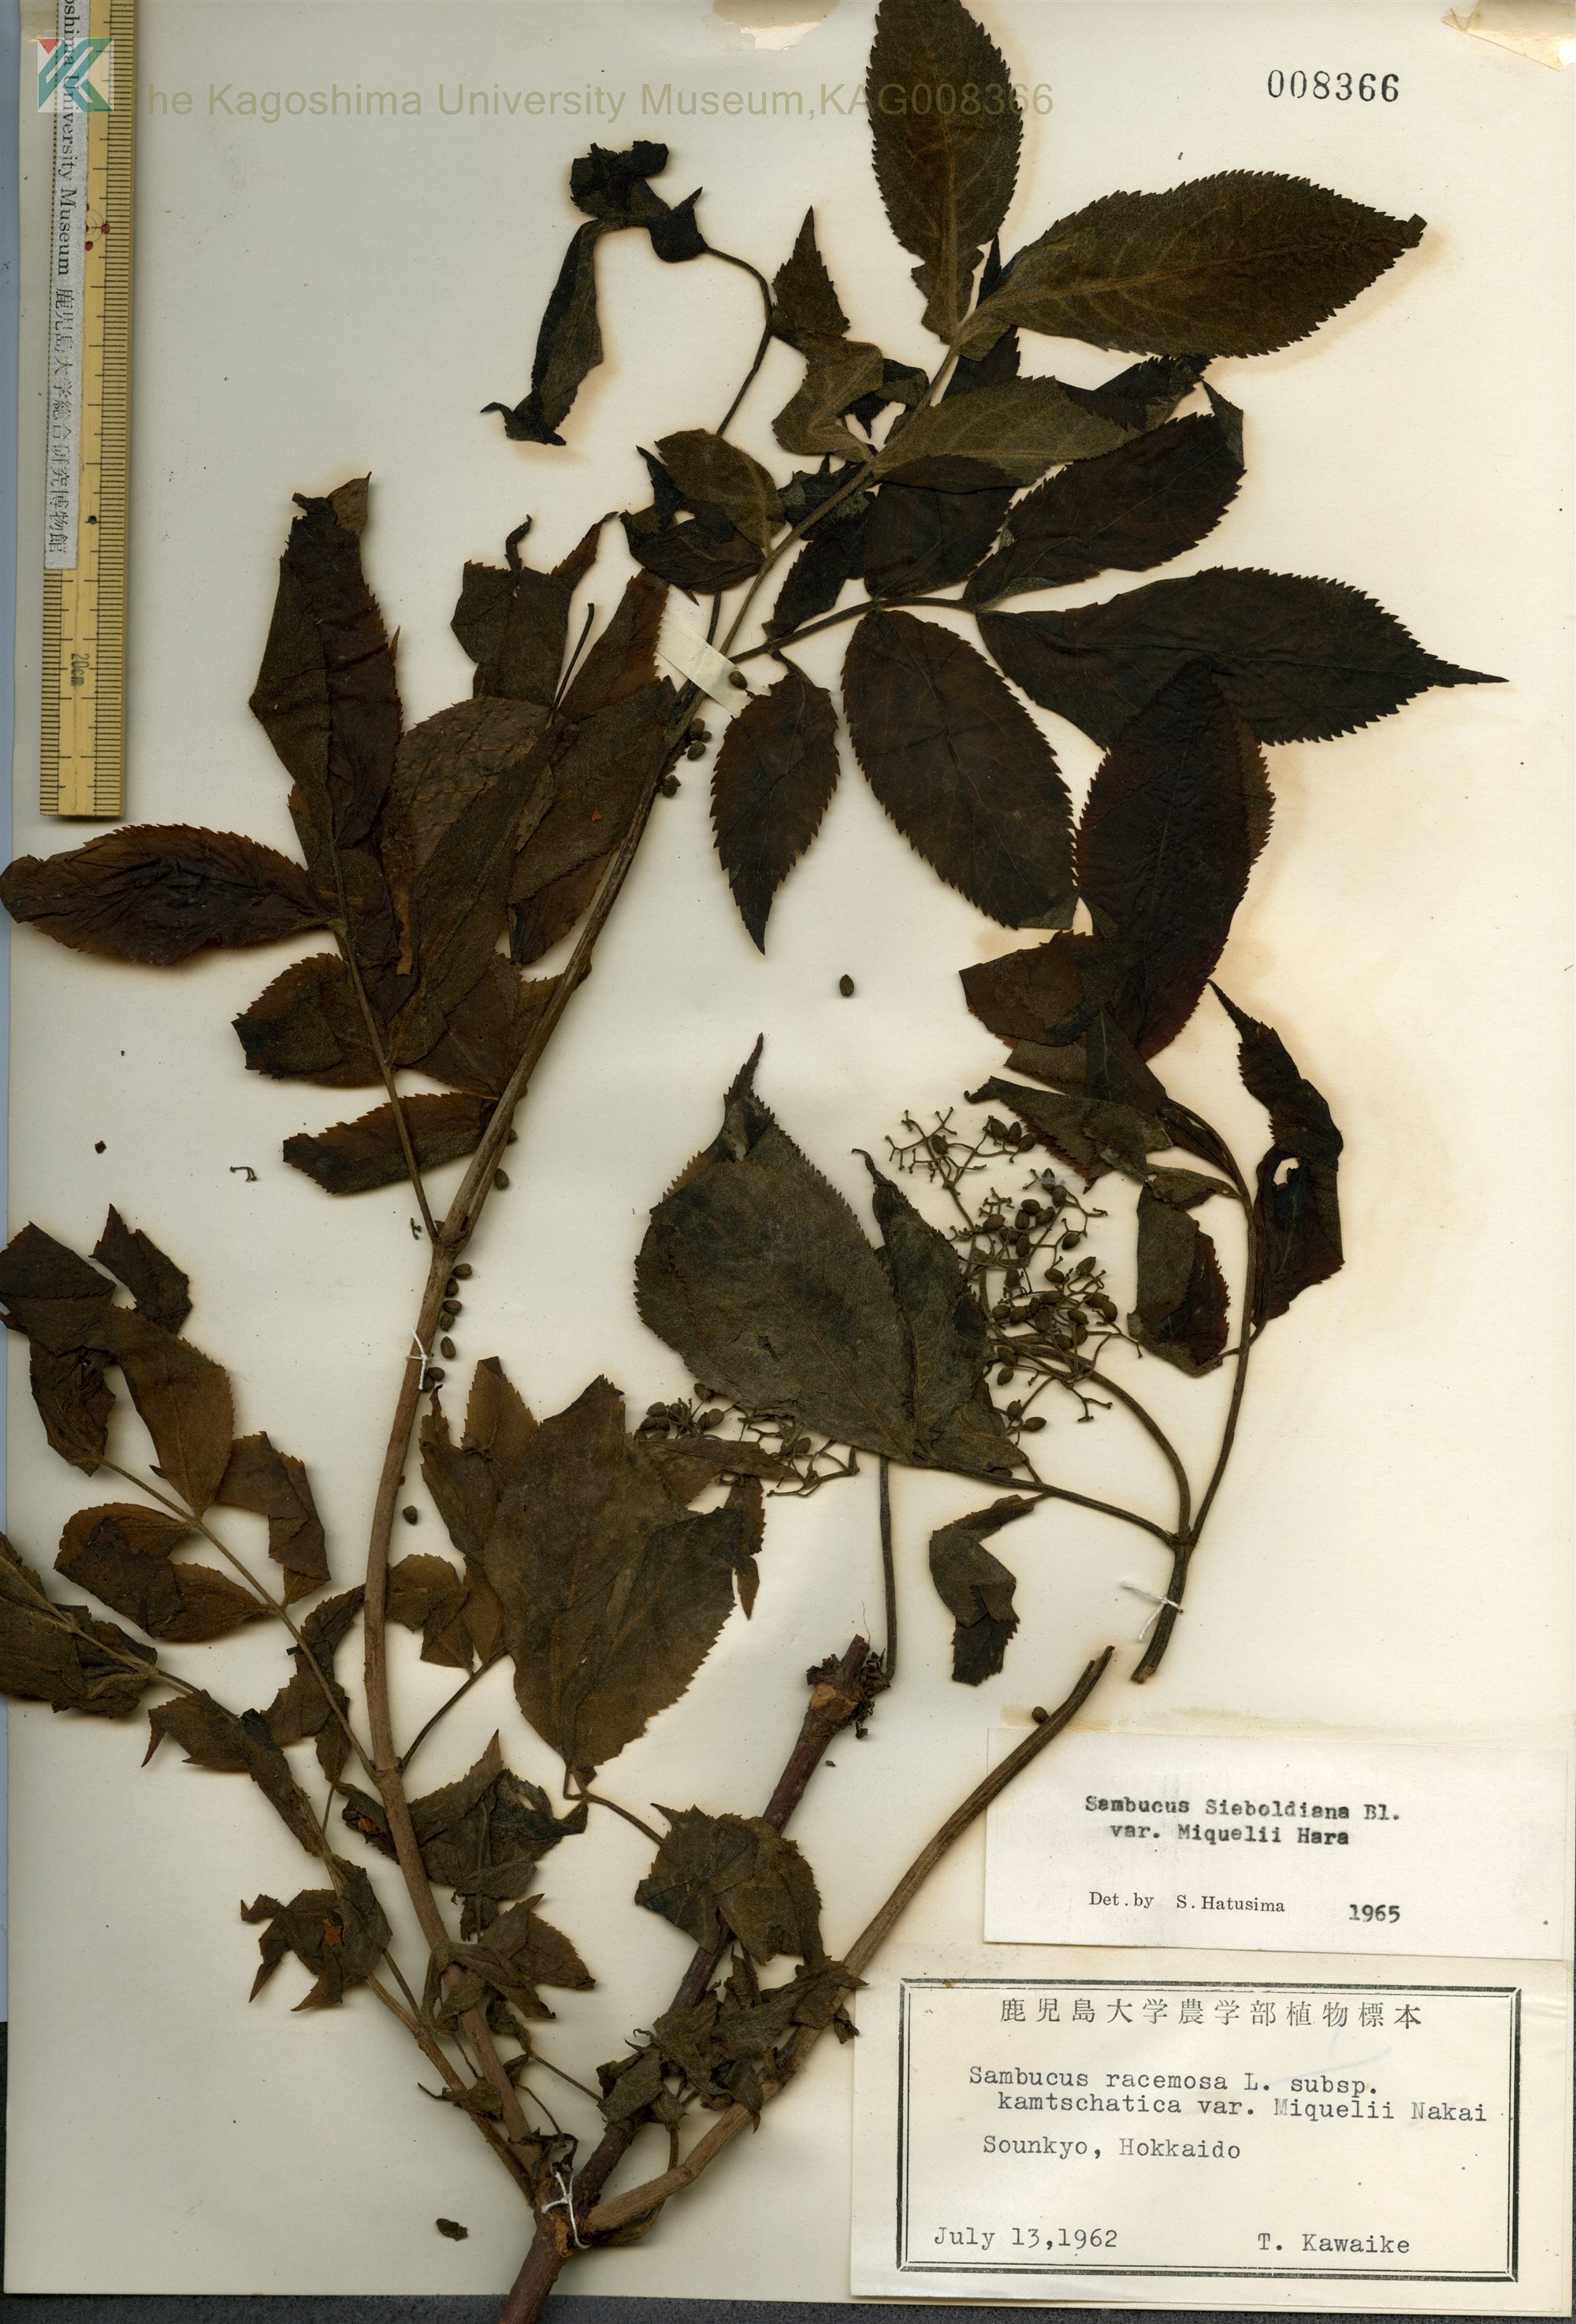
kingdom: Plantae
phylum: Tracheophyta
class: Magnoliopsida
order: Dipsacales
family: Viburnaceae
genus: Sambucus
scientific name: Sambucus kamtschatica
